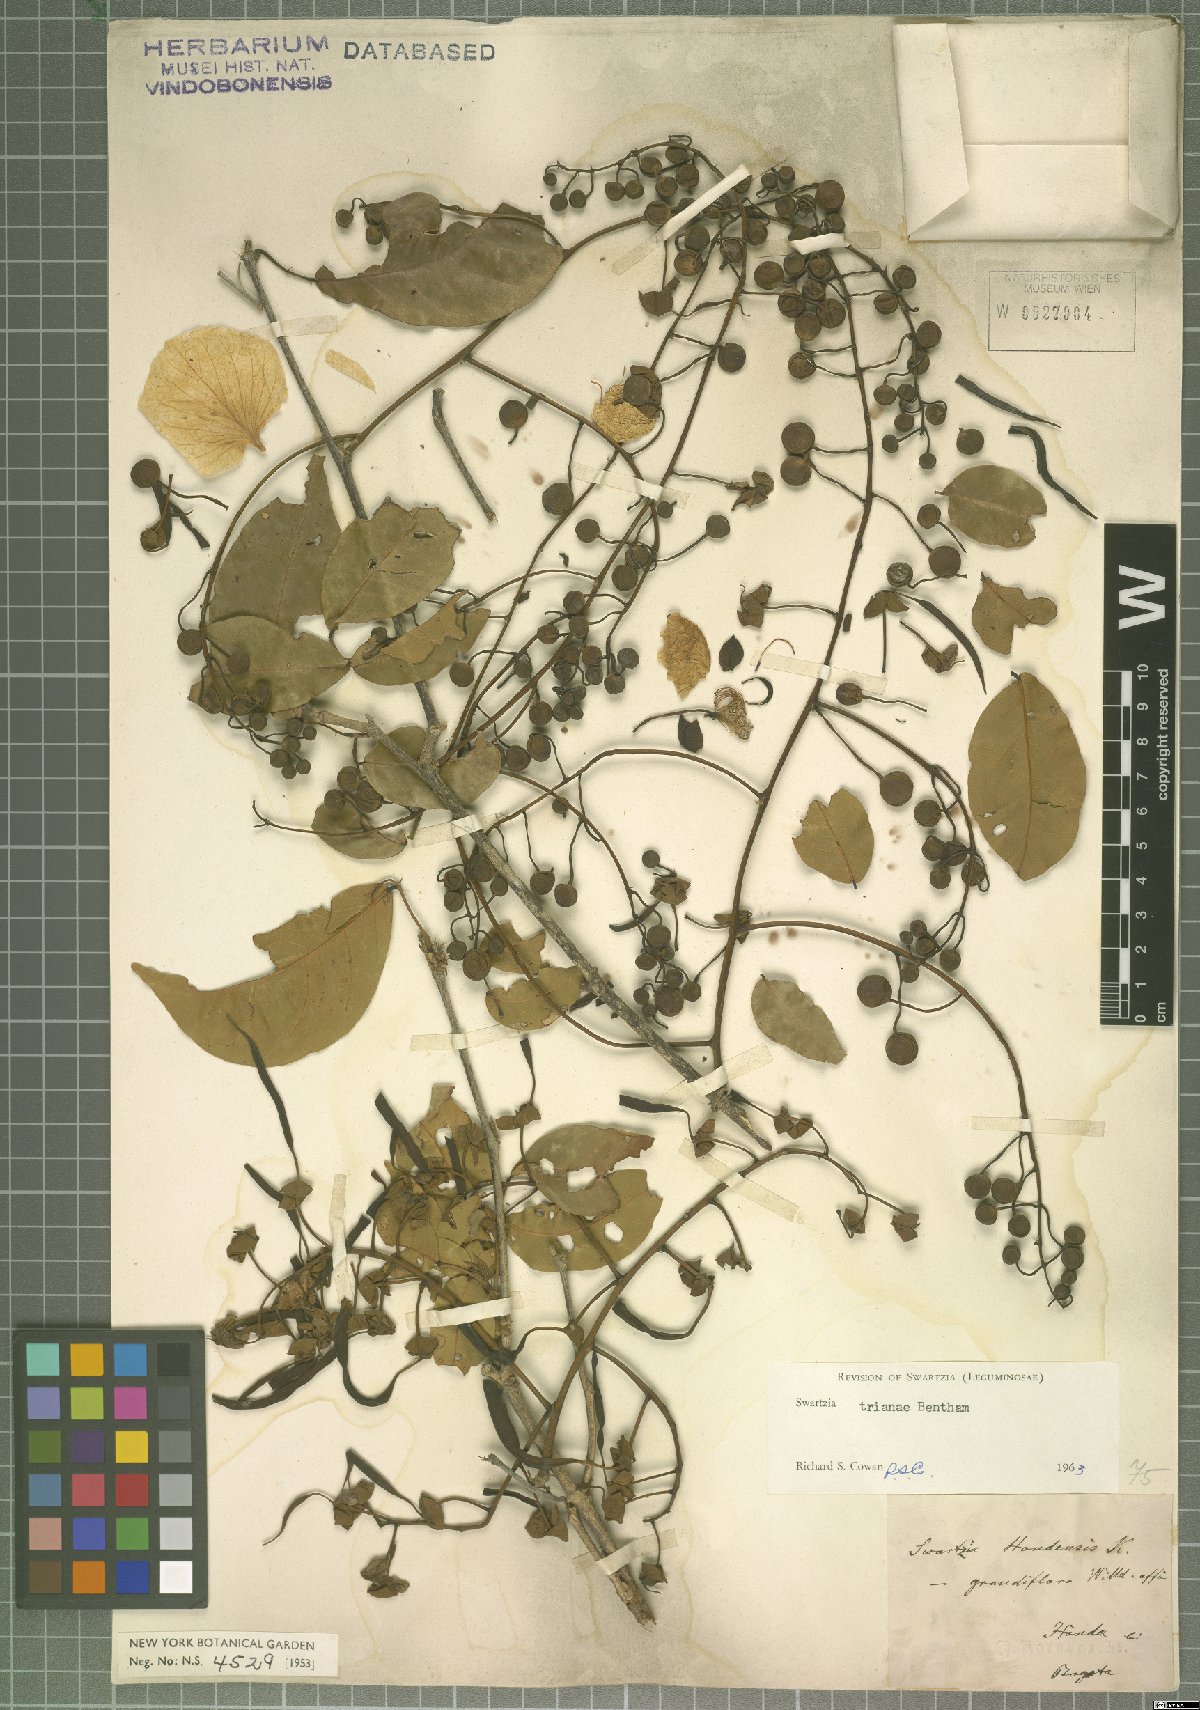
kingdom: Plantae
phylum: Tracheophyta
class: Magnoliopsida
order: Fabales
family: Fabaceae
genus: Swartzia
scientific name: Swartzia trianae
